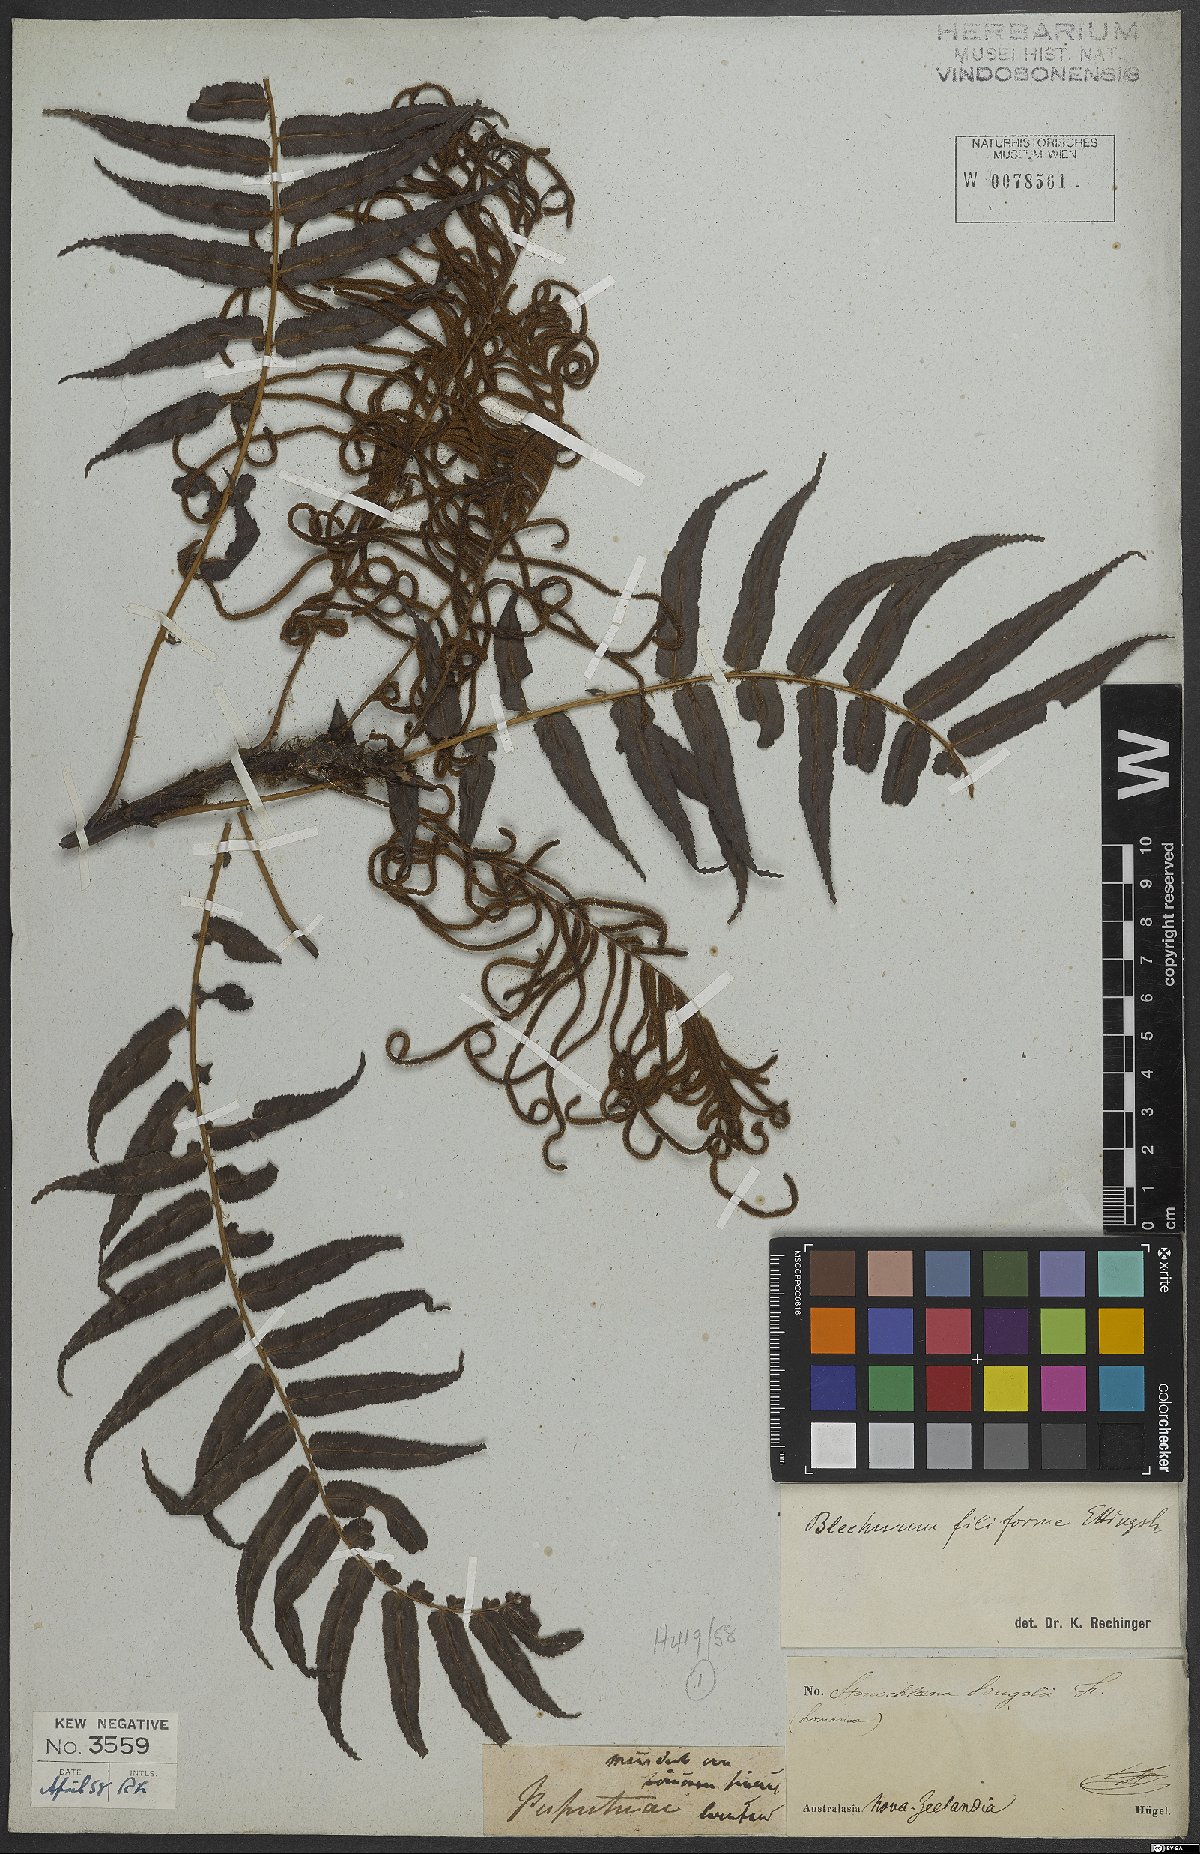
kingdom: Plantae
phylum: Tracheophyta
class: Polypodiopsida
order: Polypodiales
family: Blechnaceae
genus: Icarus
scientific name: Icarus filiformis
